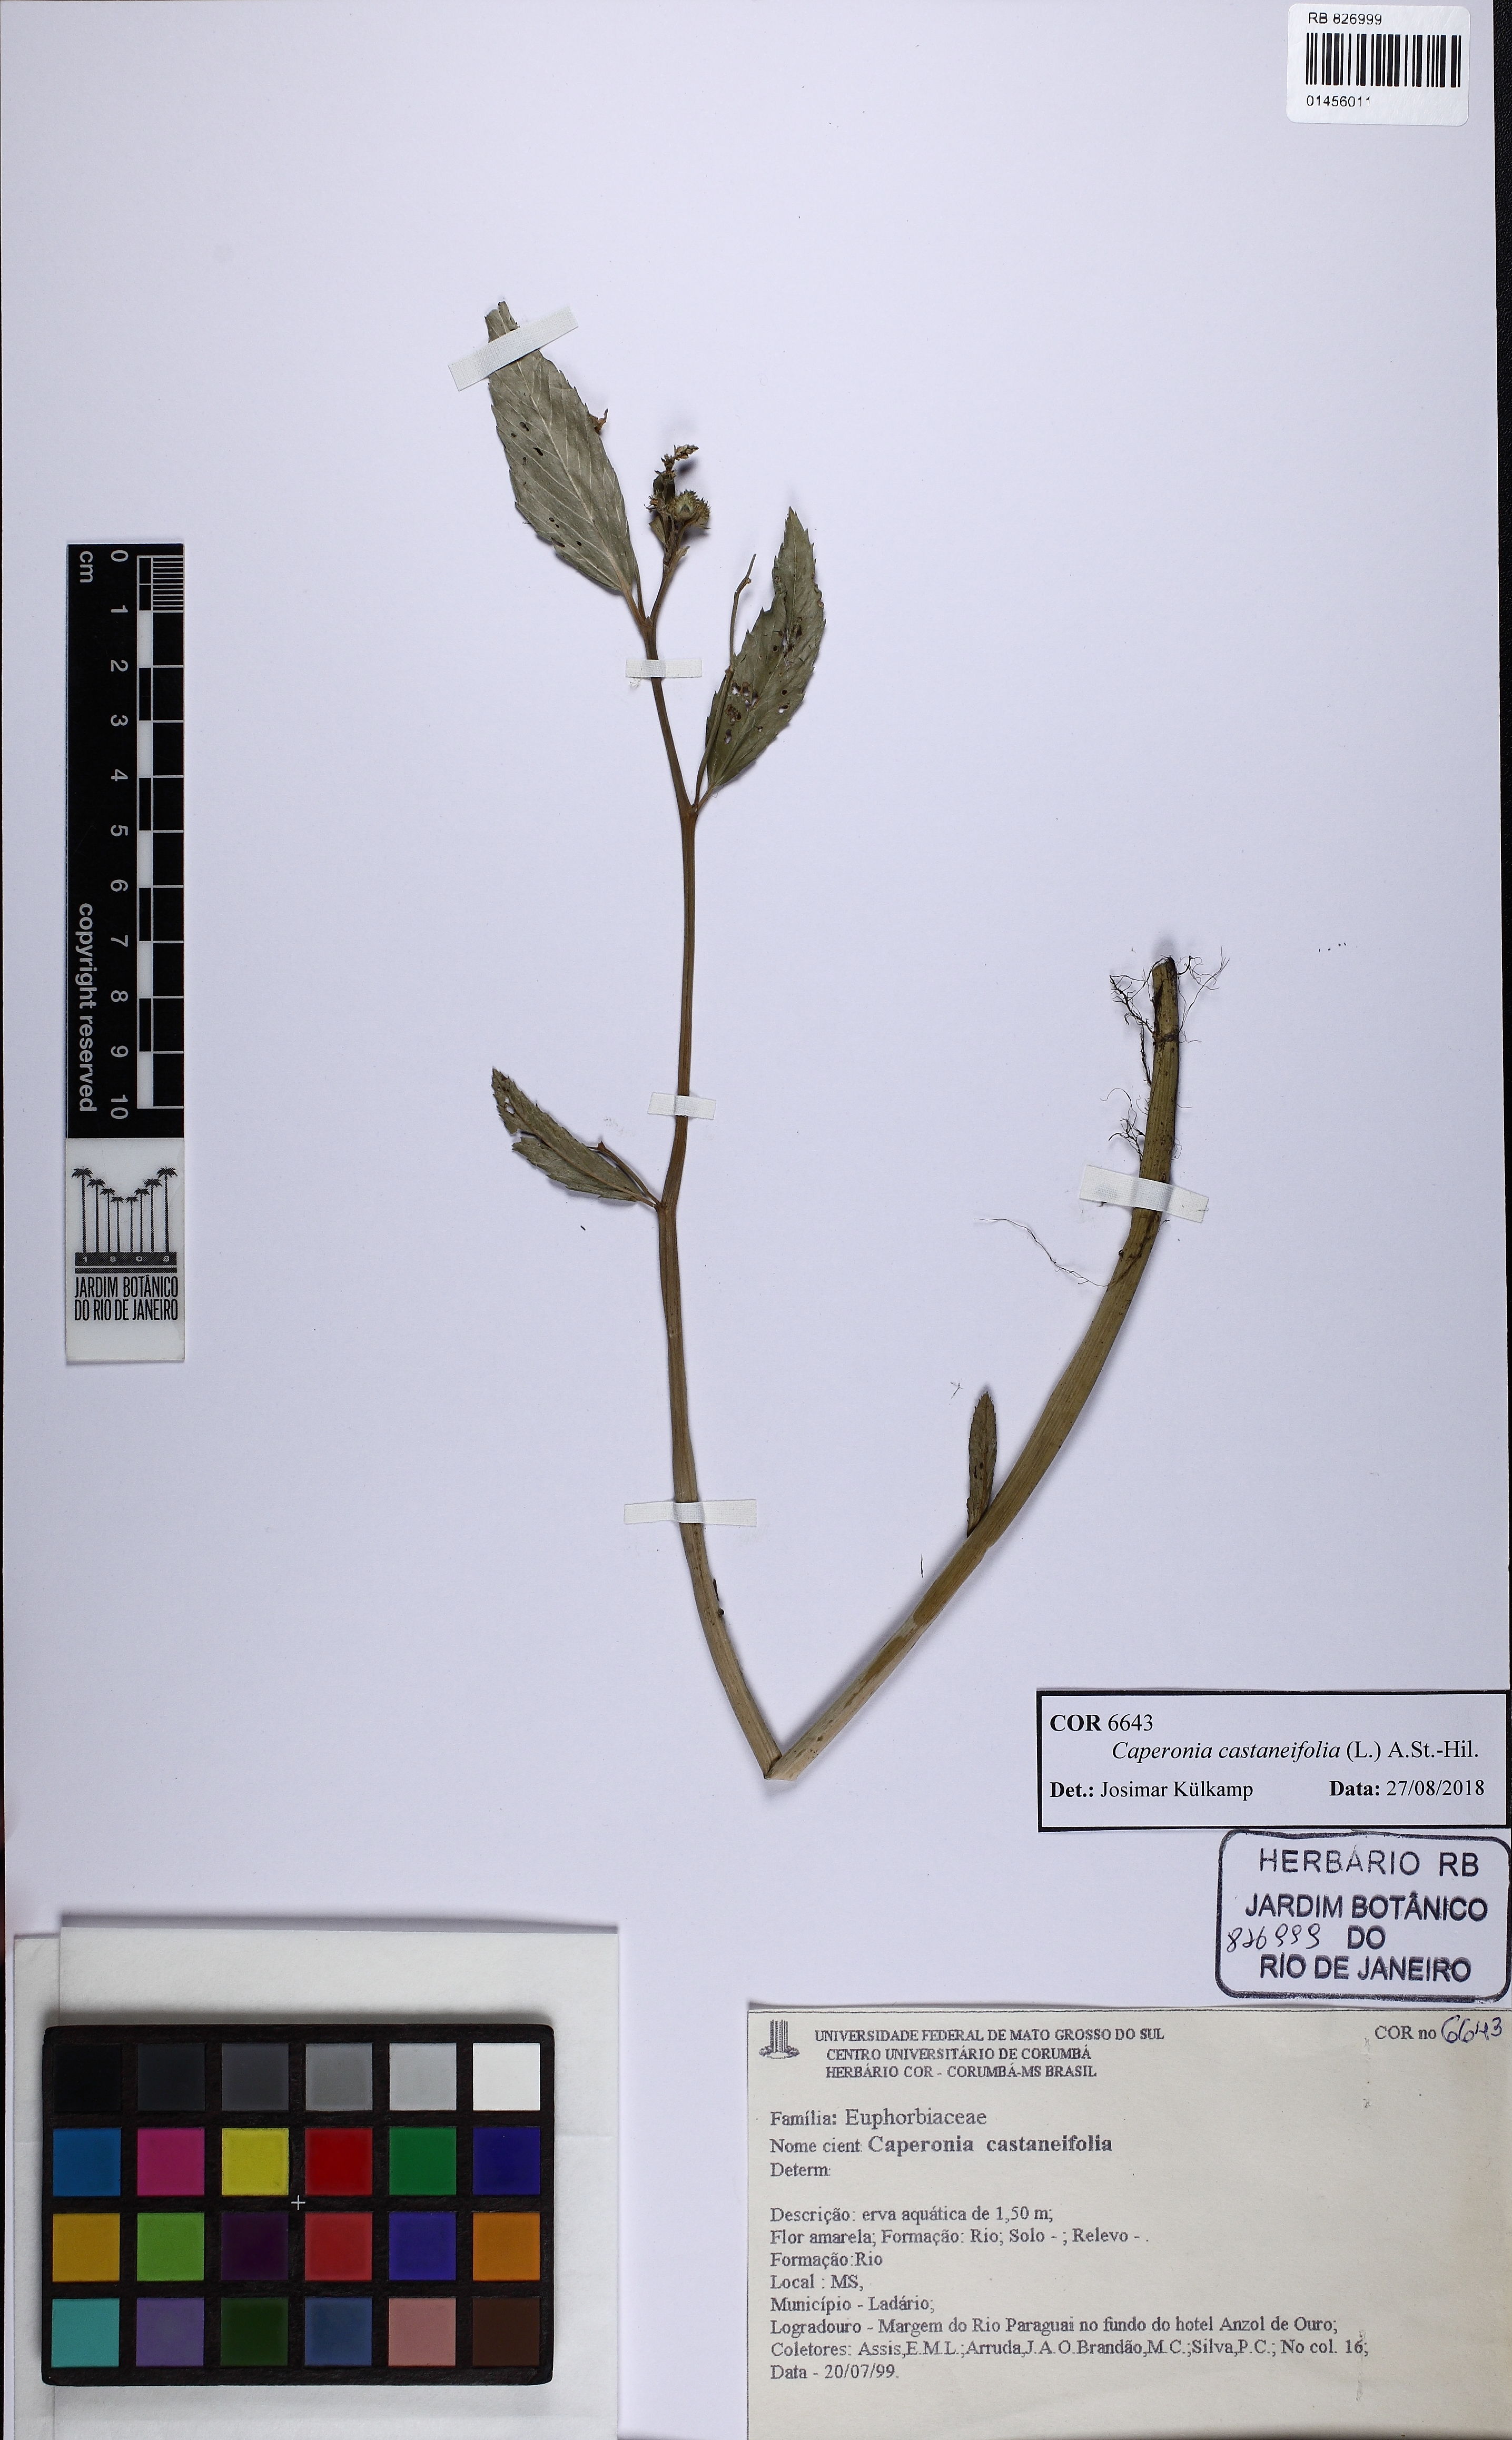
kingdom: Plantae
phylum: Tracheophyta
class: Magnoliopsida
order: Malpighiales
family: Euphorbiaceae
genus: Caperonia
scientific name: Caperonia castaneifolia
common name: Chestnutleaf false croton
